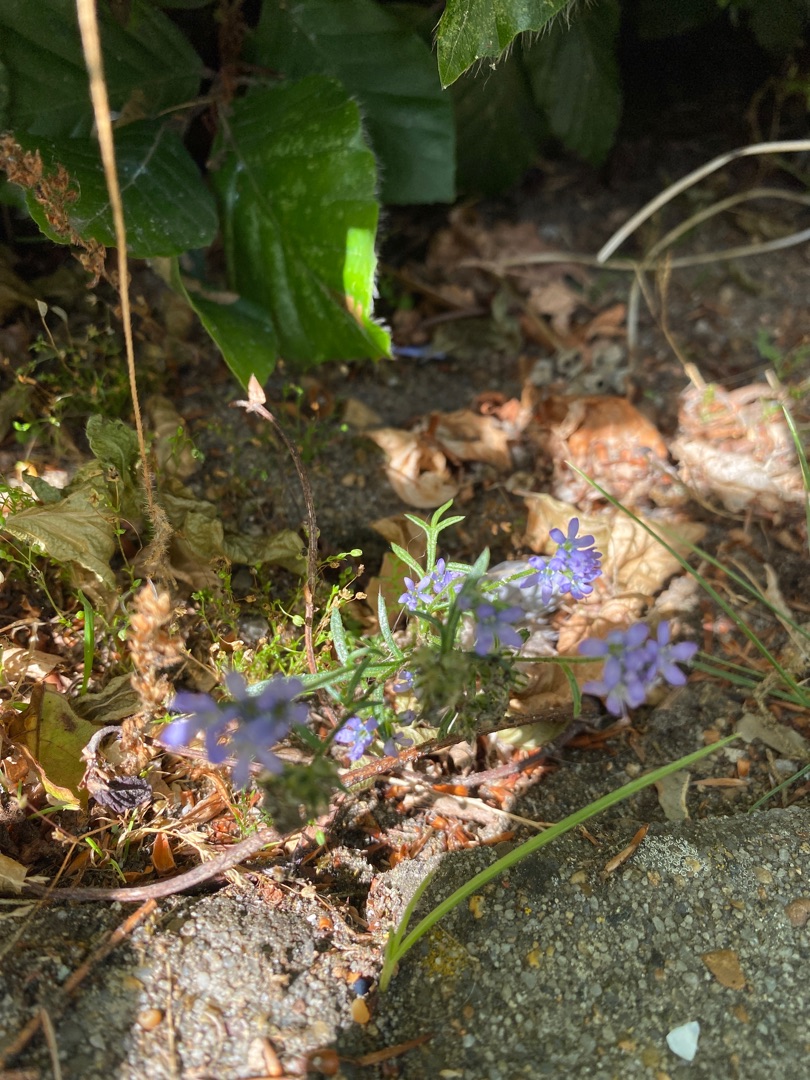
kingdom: Plantae
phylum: Tracheophyta
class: Magnoliopsida
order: Ericales
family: Polemoniaceae
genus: Gilia
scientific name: Gilia achilleifolia
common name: Fjer-blåhoved
